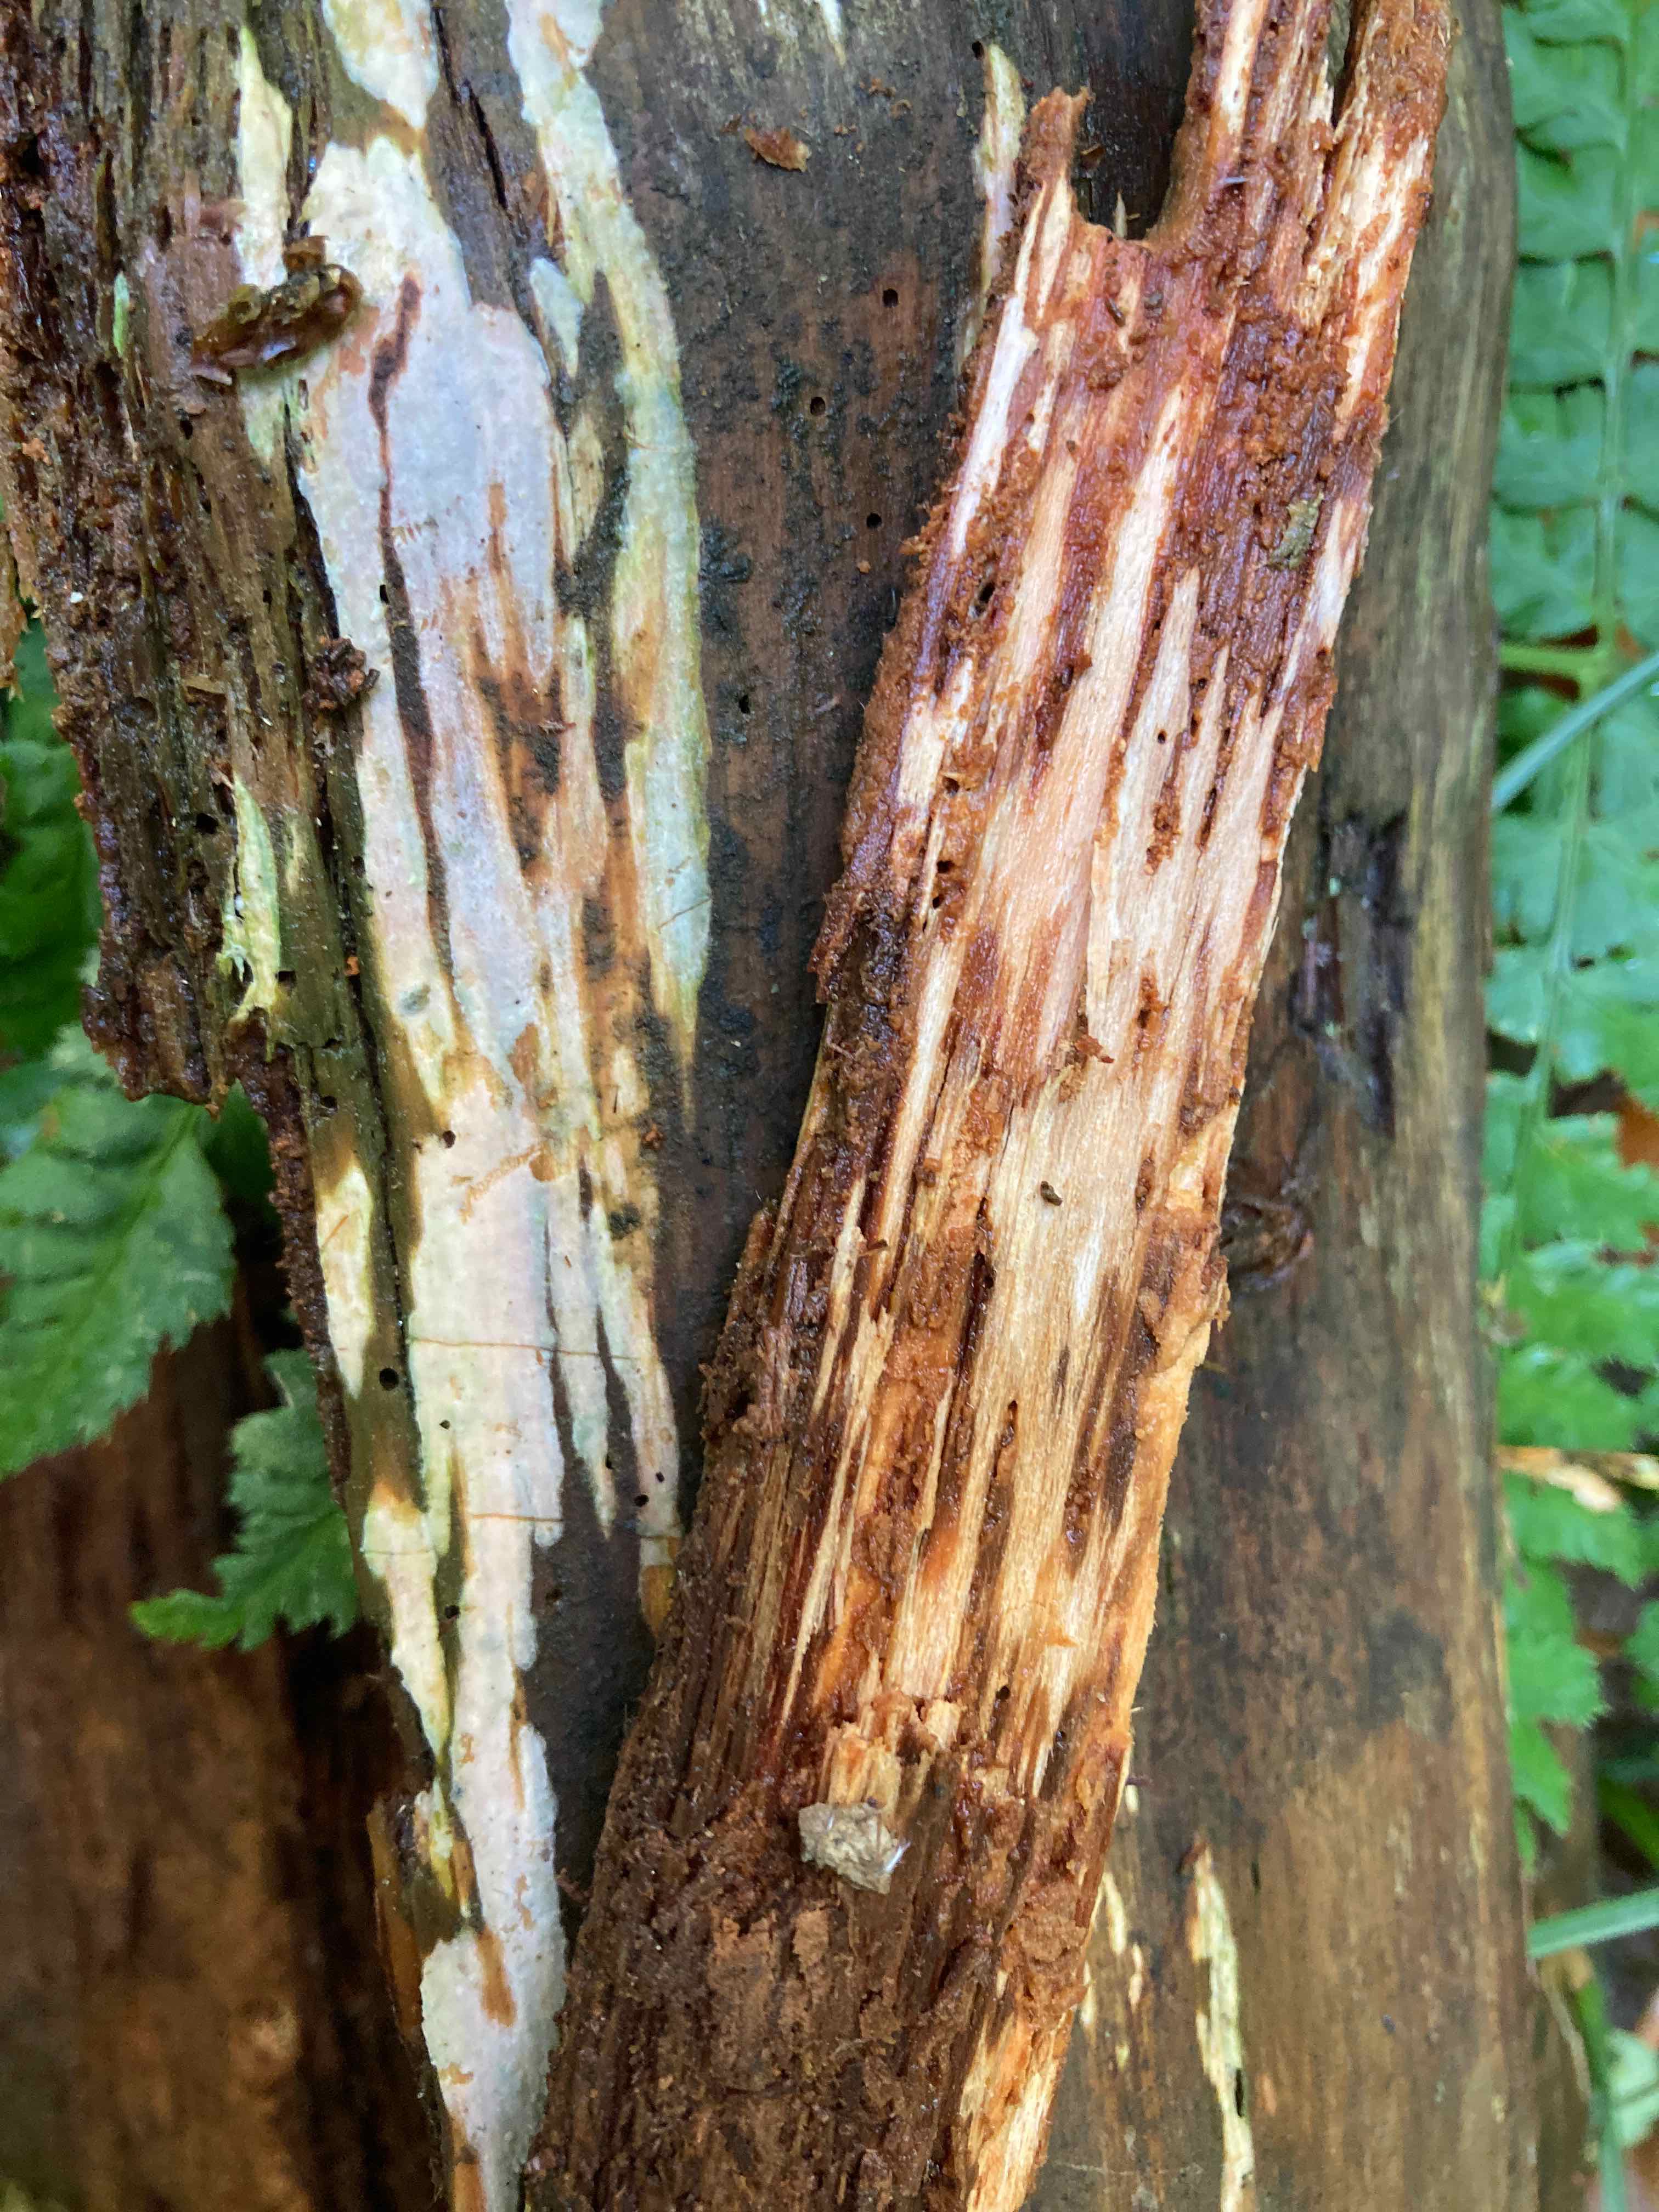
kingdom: Fungi
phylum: Basidiomycota
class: Agaricomycetes
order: Hymenochaetales
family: Rickenellaceae
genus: Globulicium
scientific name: Globulicium hiemale
